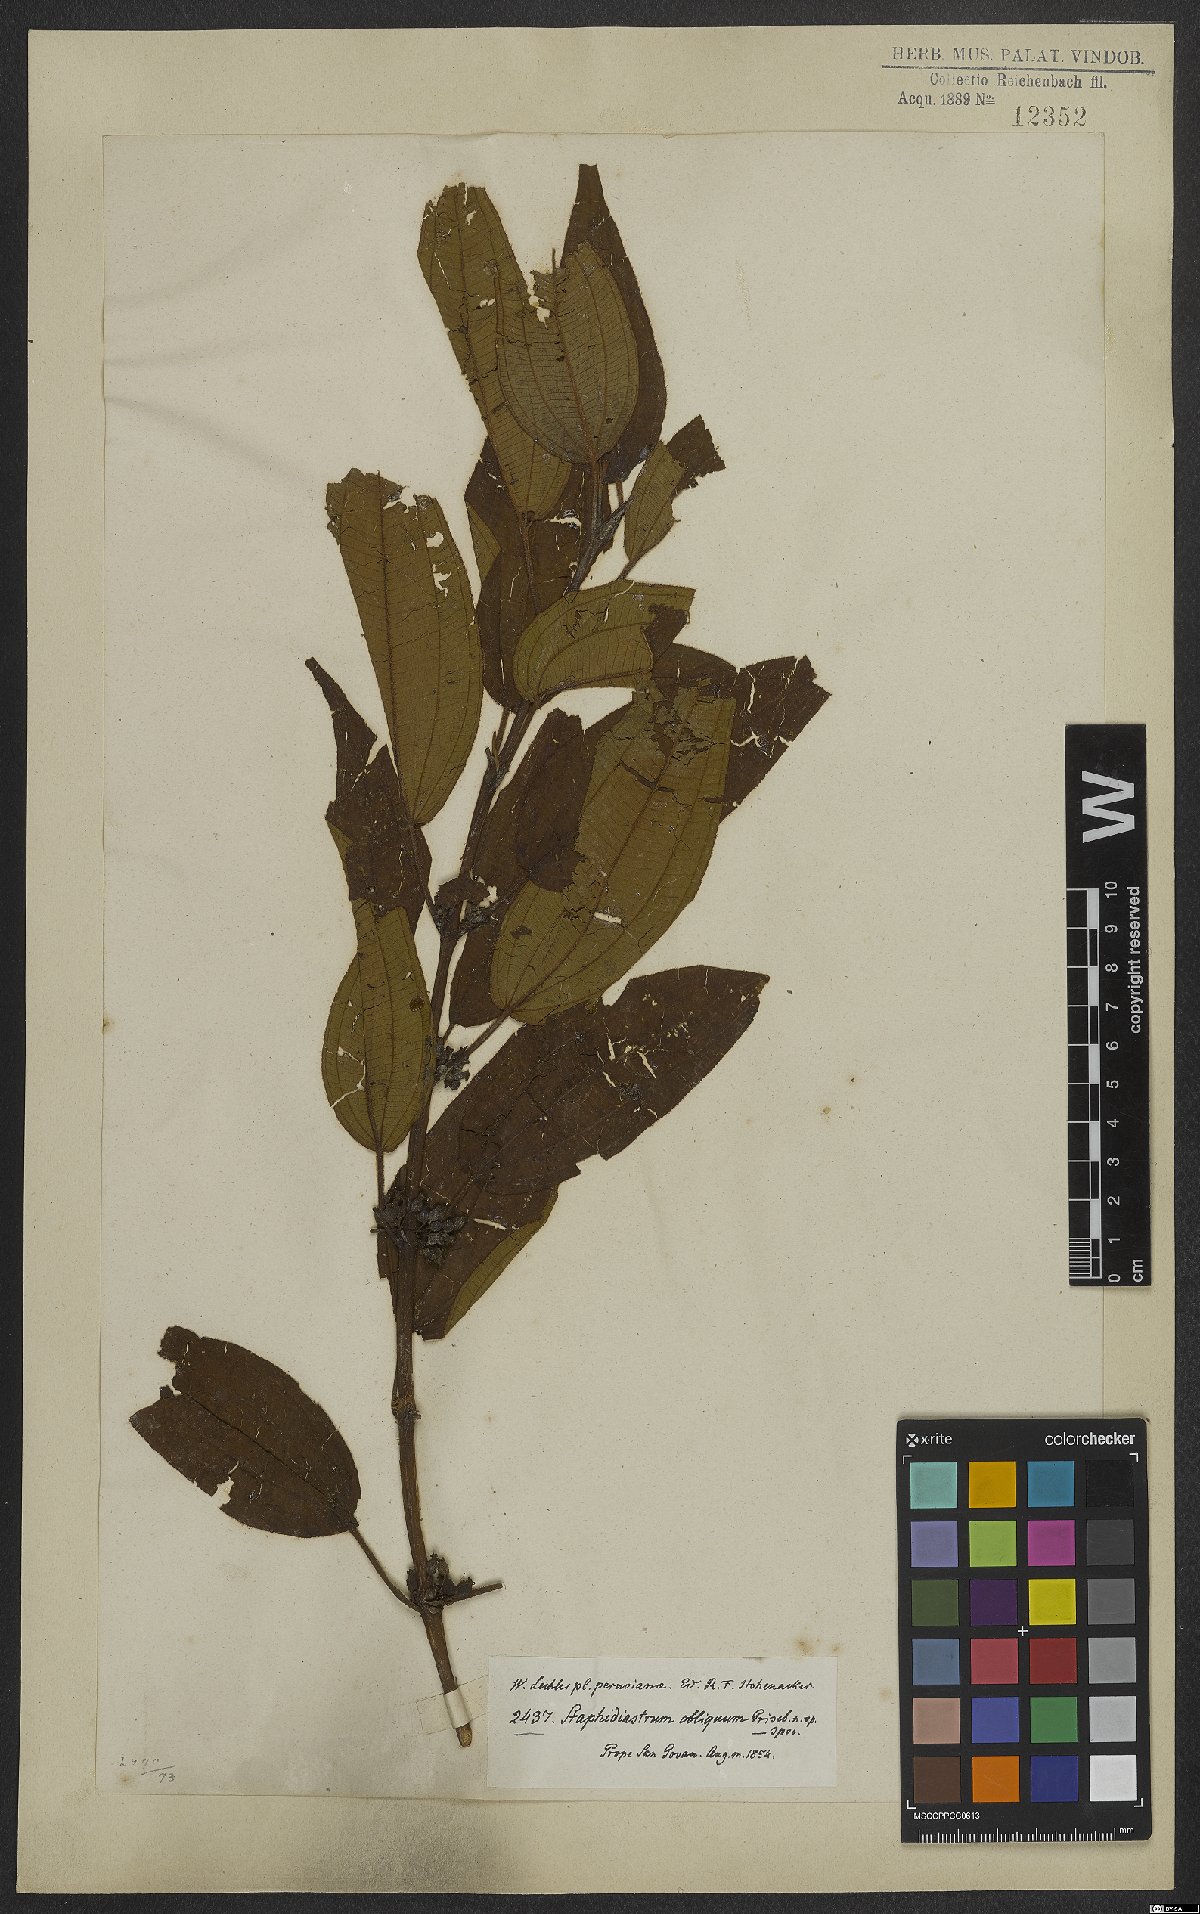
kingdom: Plantae
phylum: Tracheophyta
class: Magnoliopsida
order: Myrtales
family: Melastomataceae
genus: Miconia
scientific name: Miconia alaticaulis
